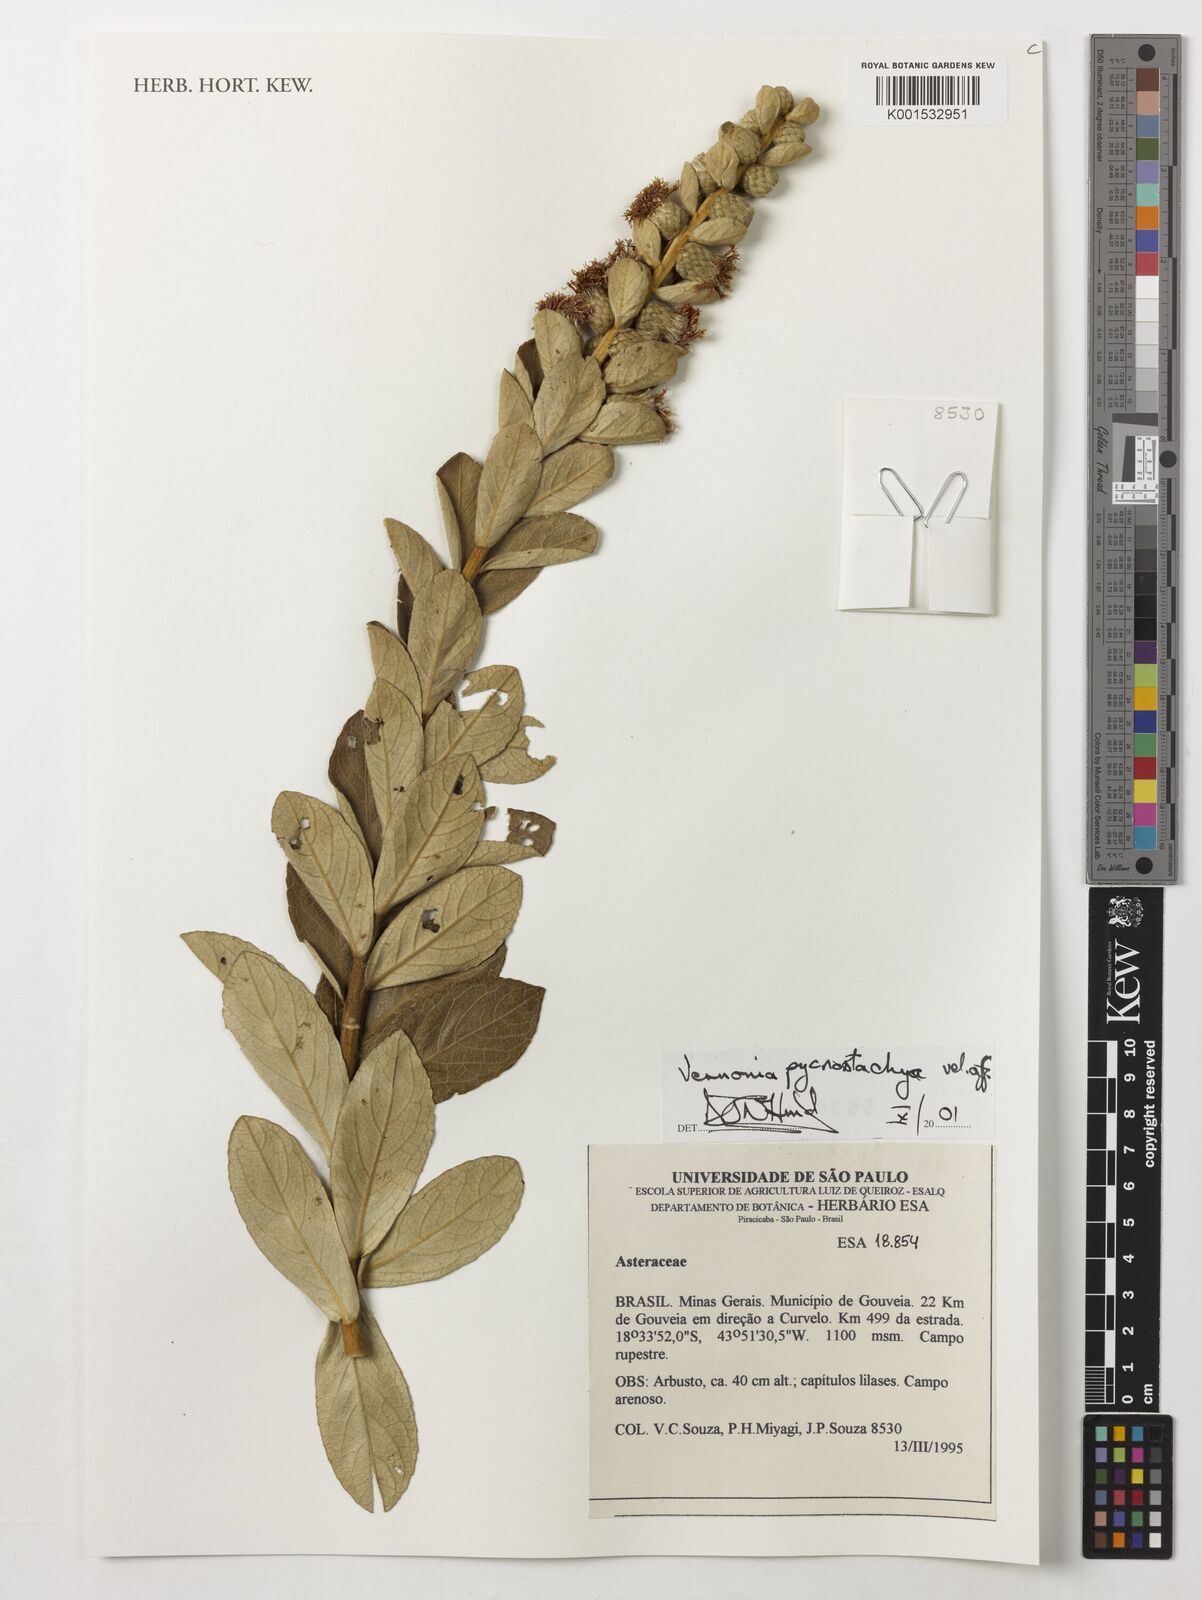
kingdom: Plantae
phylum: Tracheophyta
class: Magnoliopsida
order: Asterales
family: Asteraceae
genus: Lessingianthus
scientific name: Lessingianthus pycnostachyus
